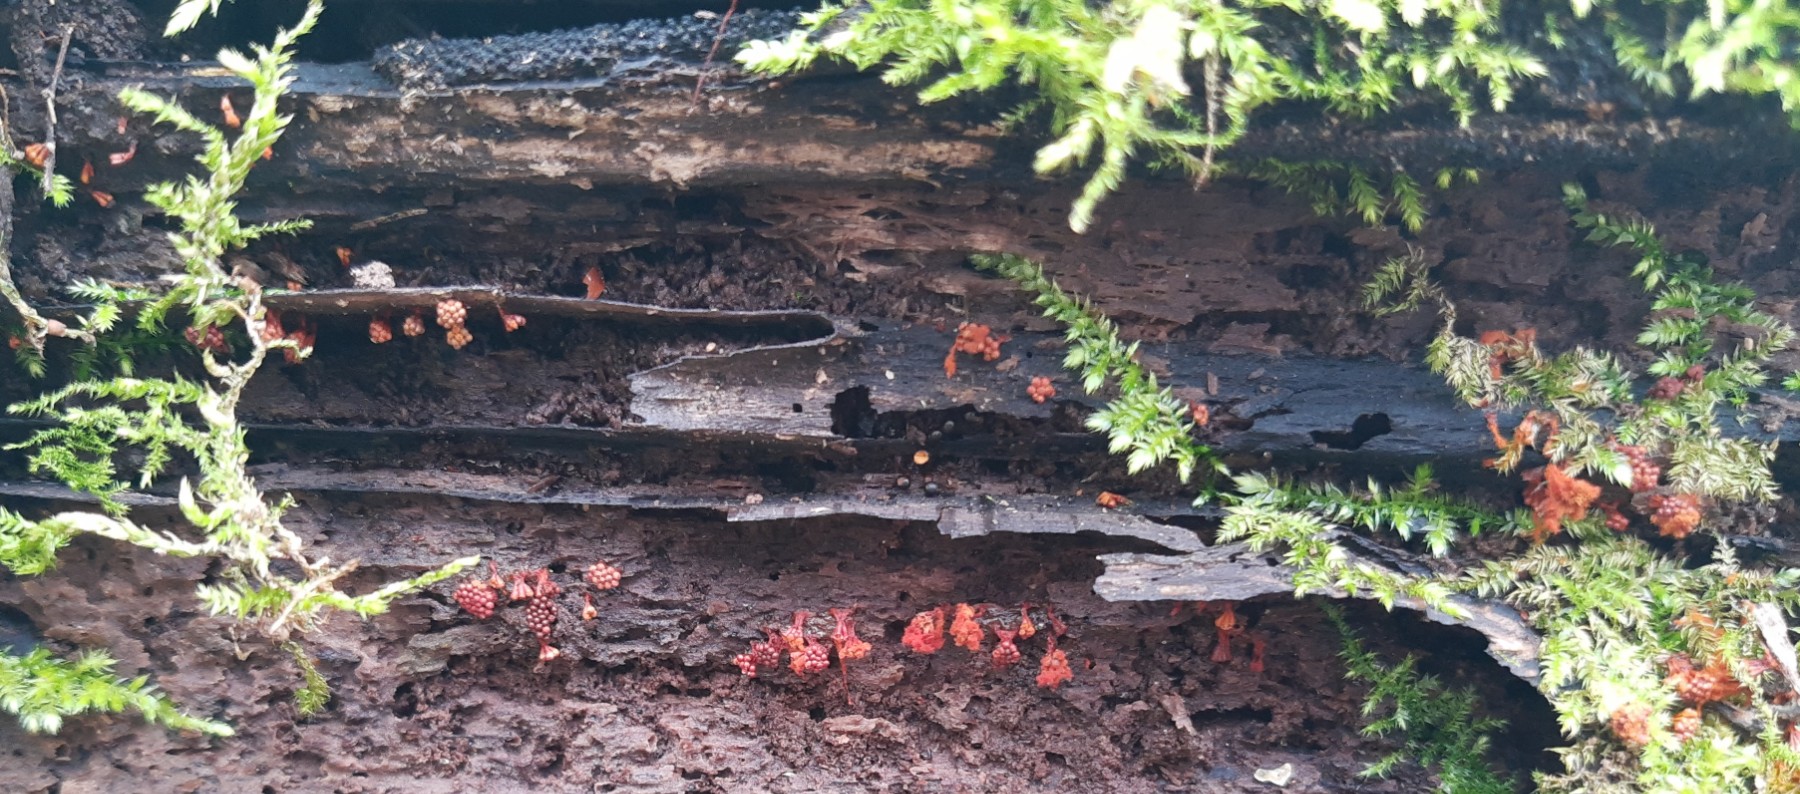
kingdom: Protozoa
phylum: Mycetozoa
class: Myxomycetes
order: Trichiales
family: Trichiaceae
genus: Metatrichia
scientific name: Metatrichia vesparia
